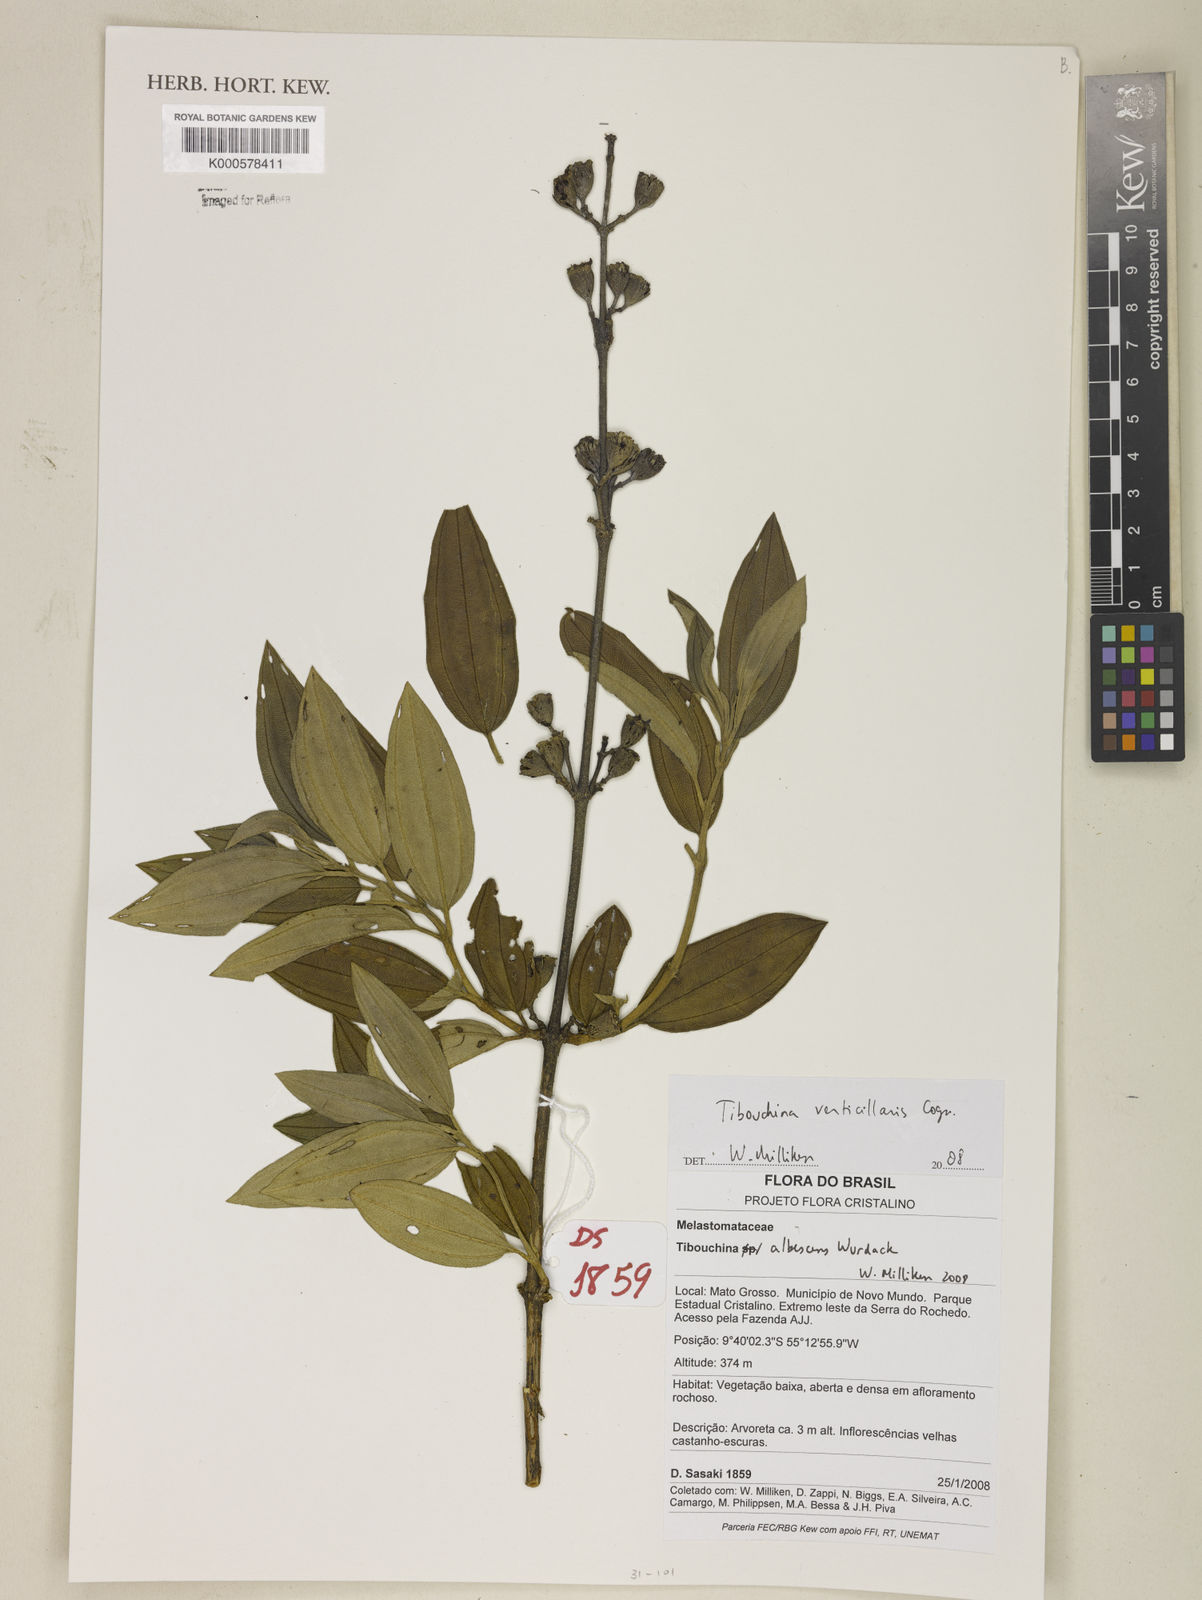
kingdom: Plantae
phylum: Tracheophyta
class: Magnoliopsida
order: Myrtales
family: Melastomataceae
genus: Tibouchina
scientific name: Tibouchina verticillaris
